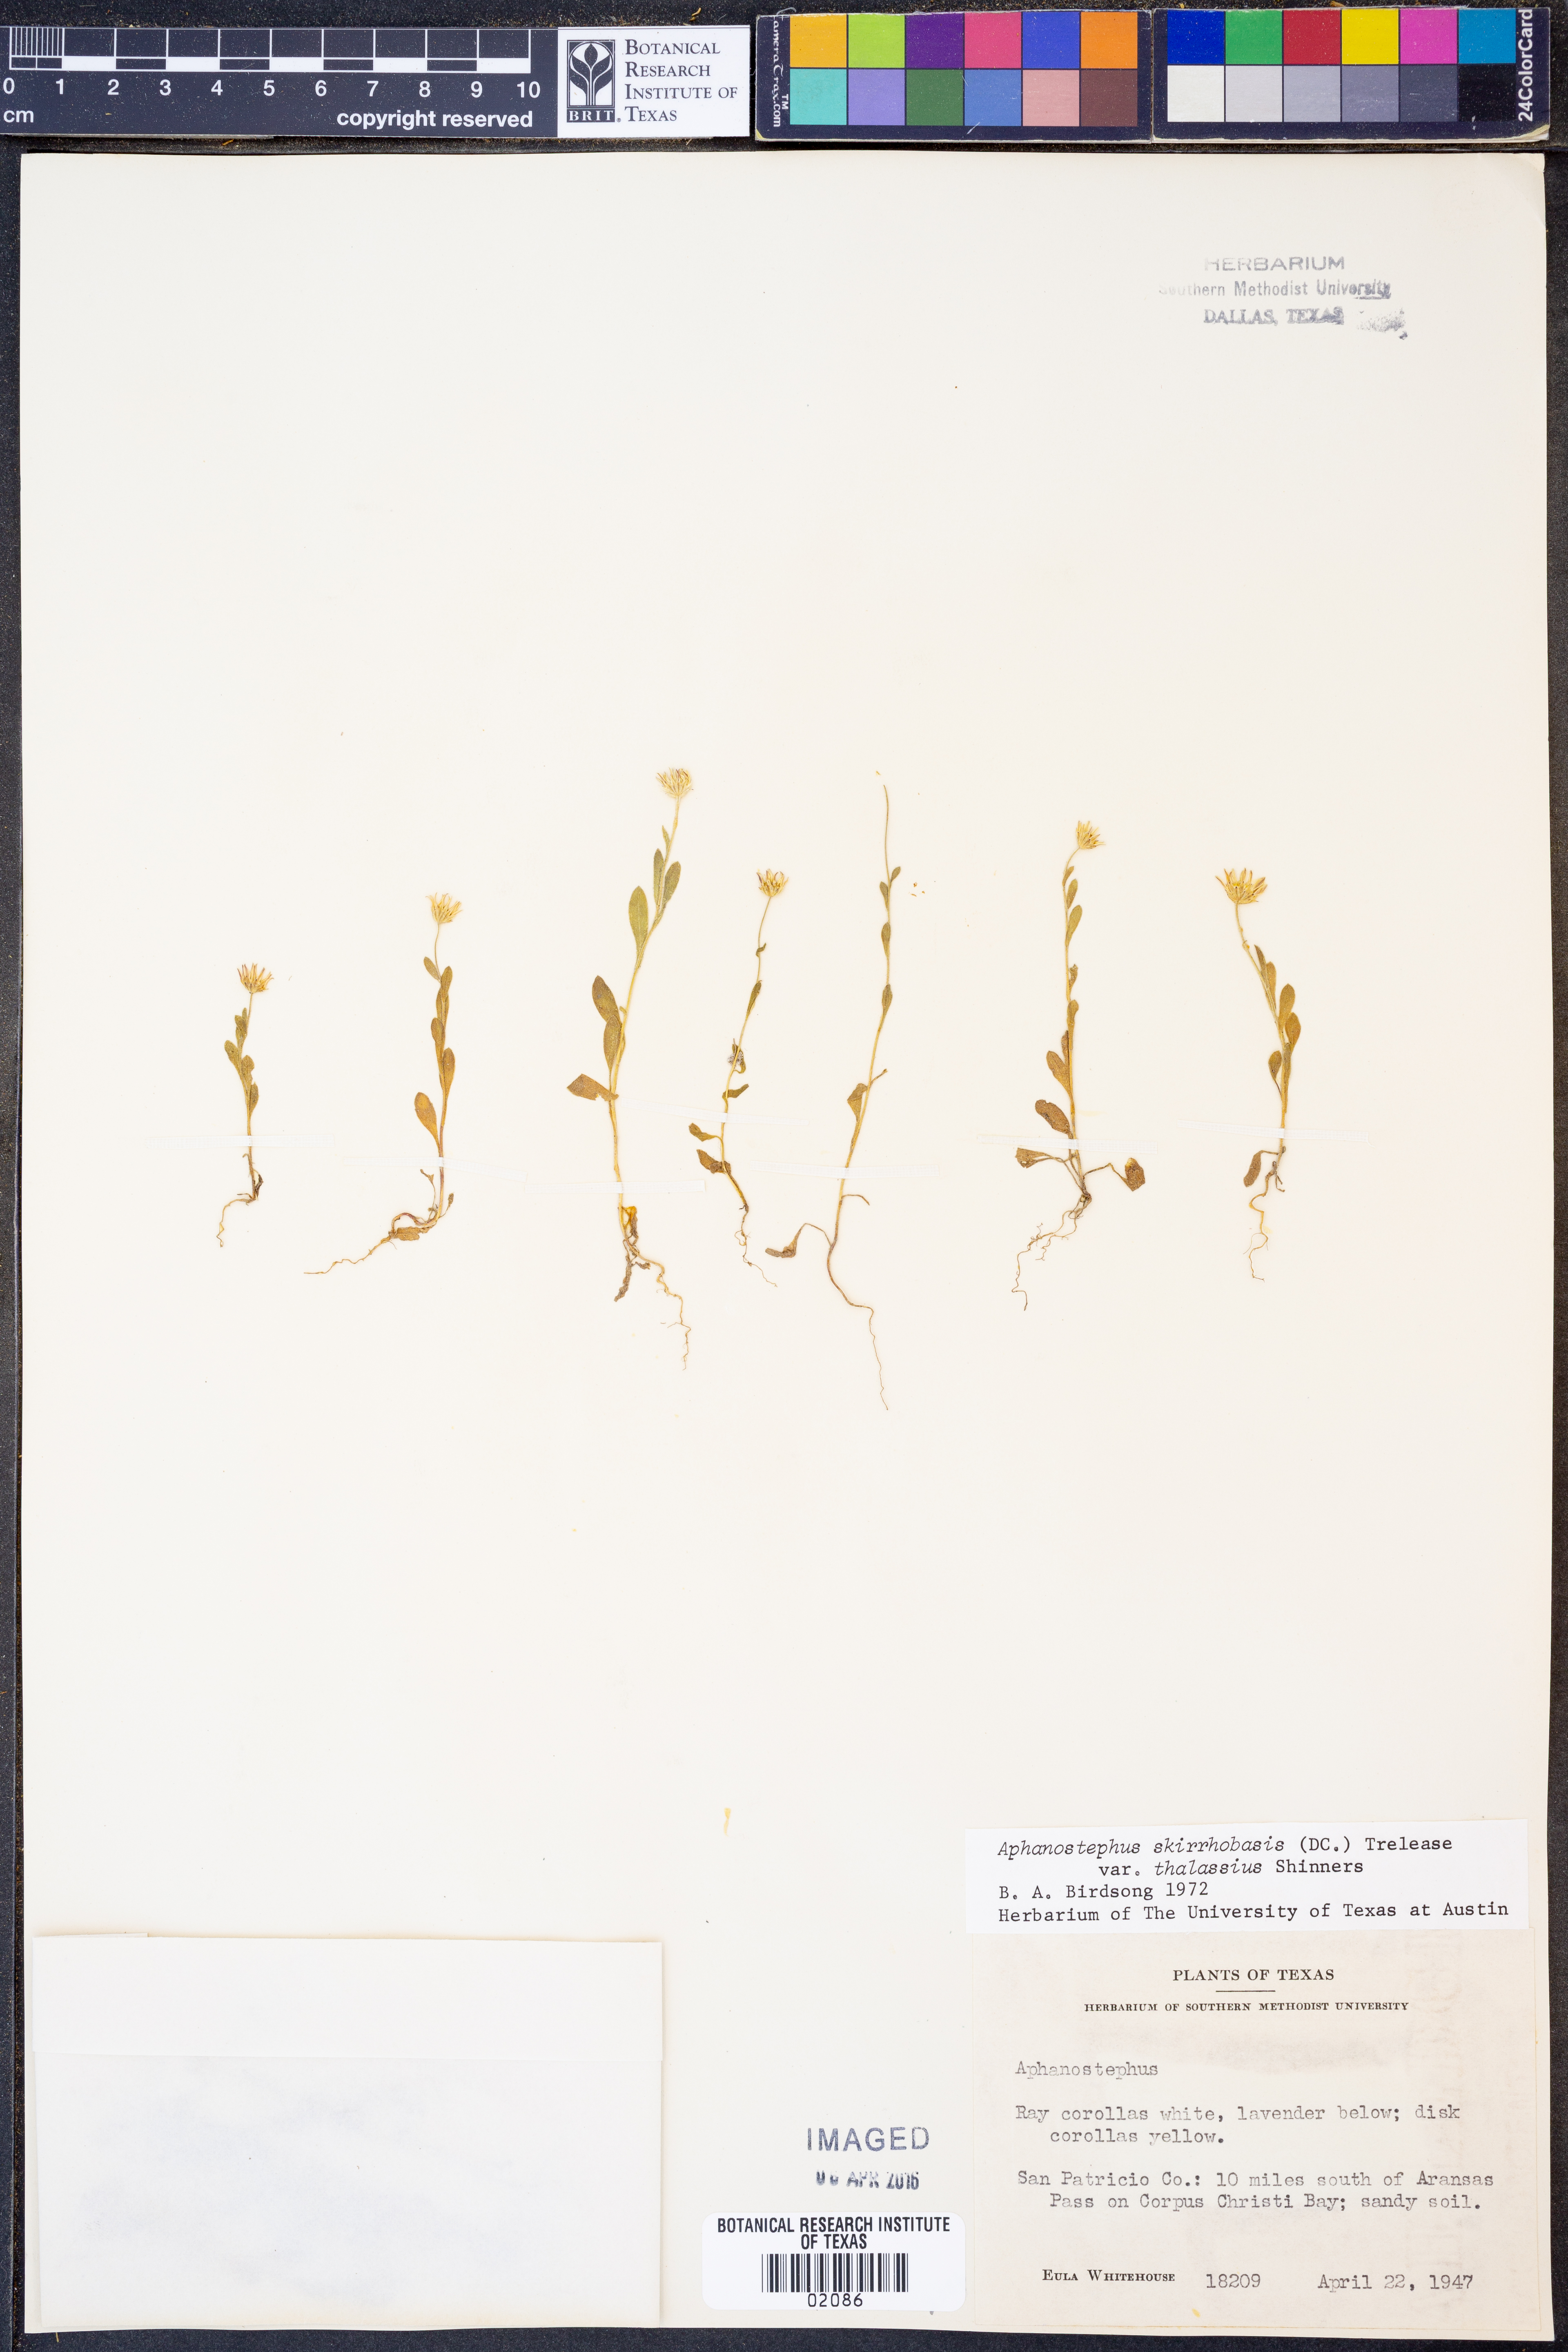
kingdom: Plantae
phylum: Tracheophyta
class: Magnoliopsida
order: Asterales
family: Asteraceae
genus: Aphanostephus
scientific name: Aphanostephus skirrhobasis
